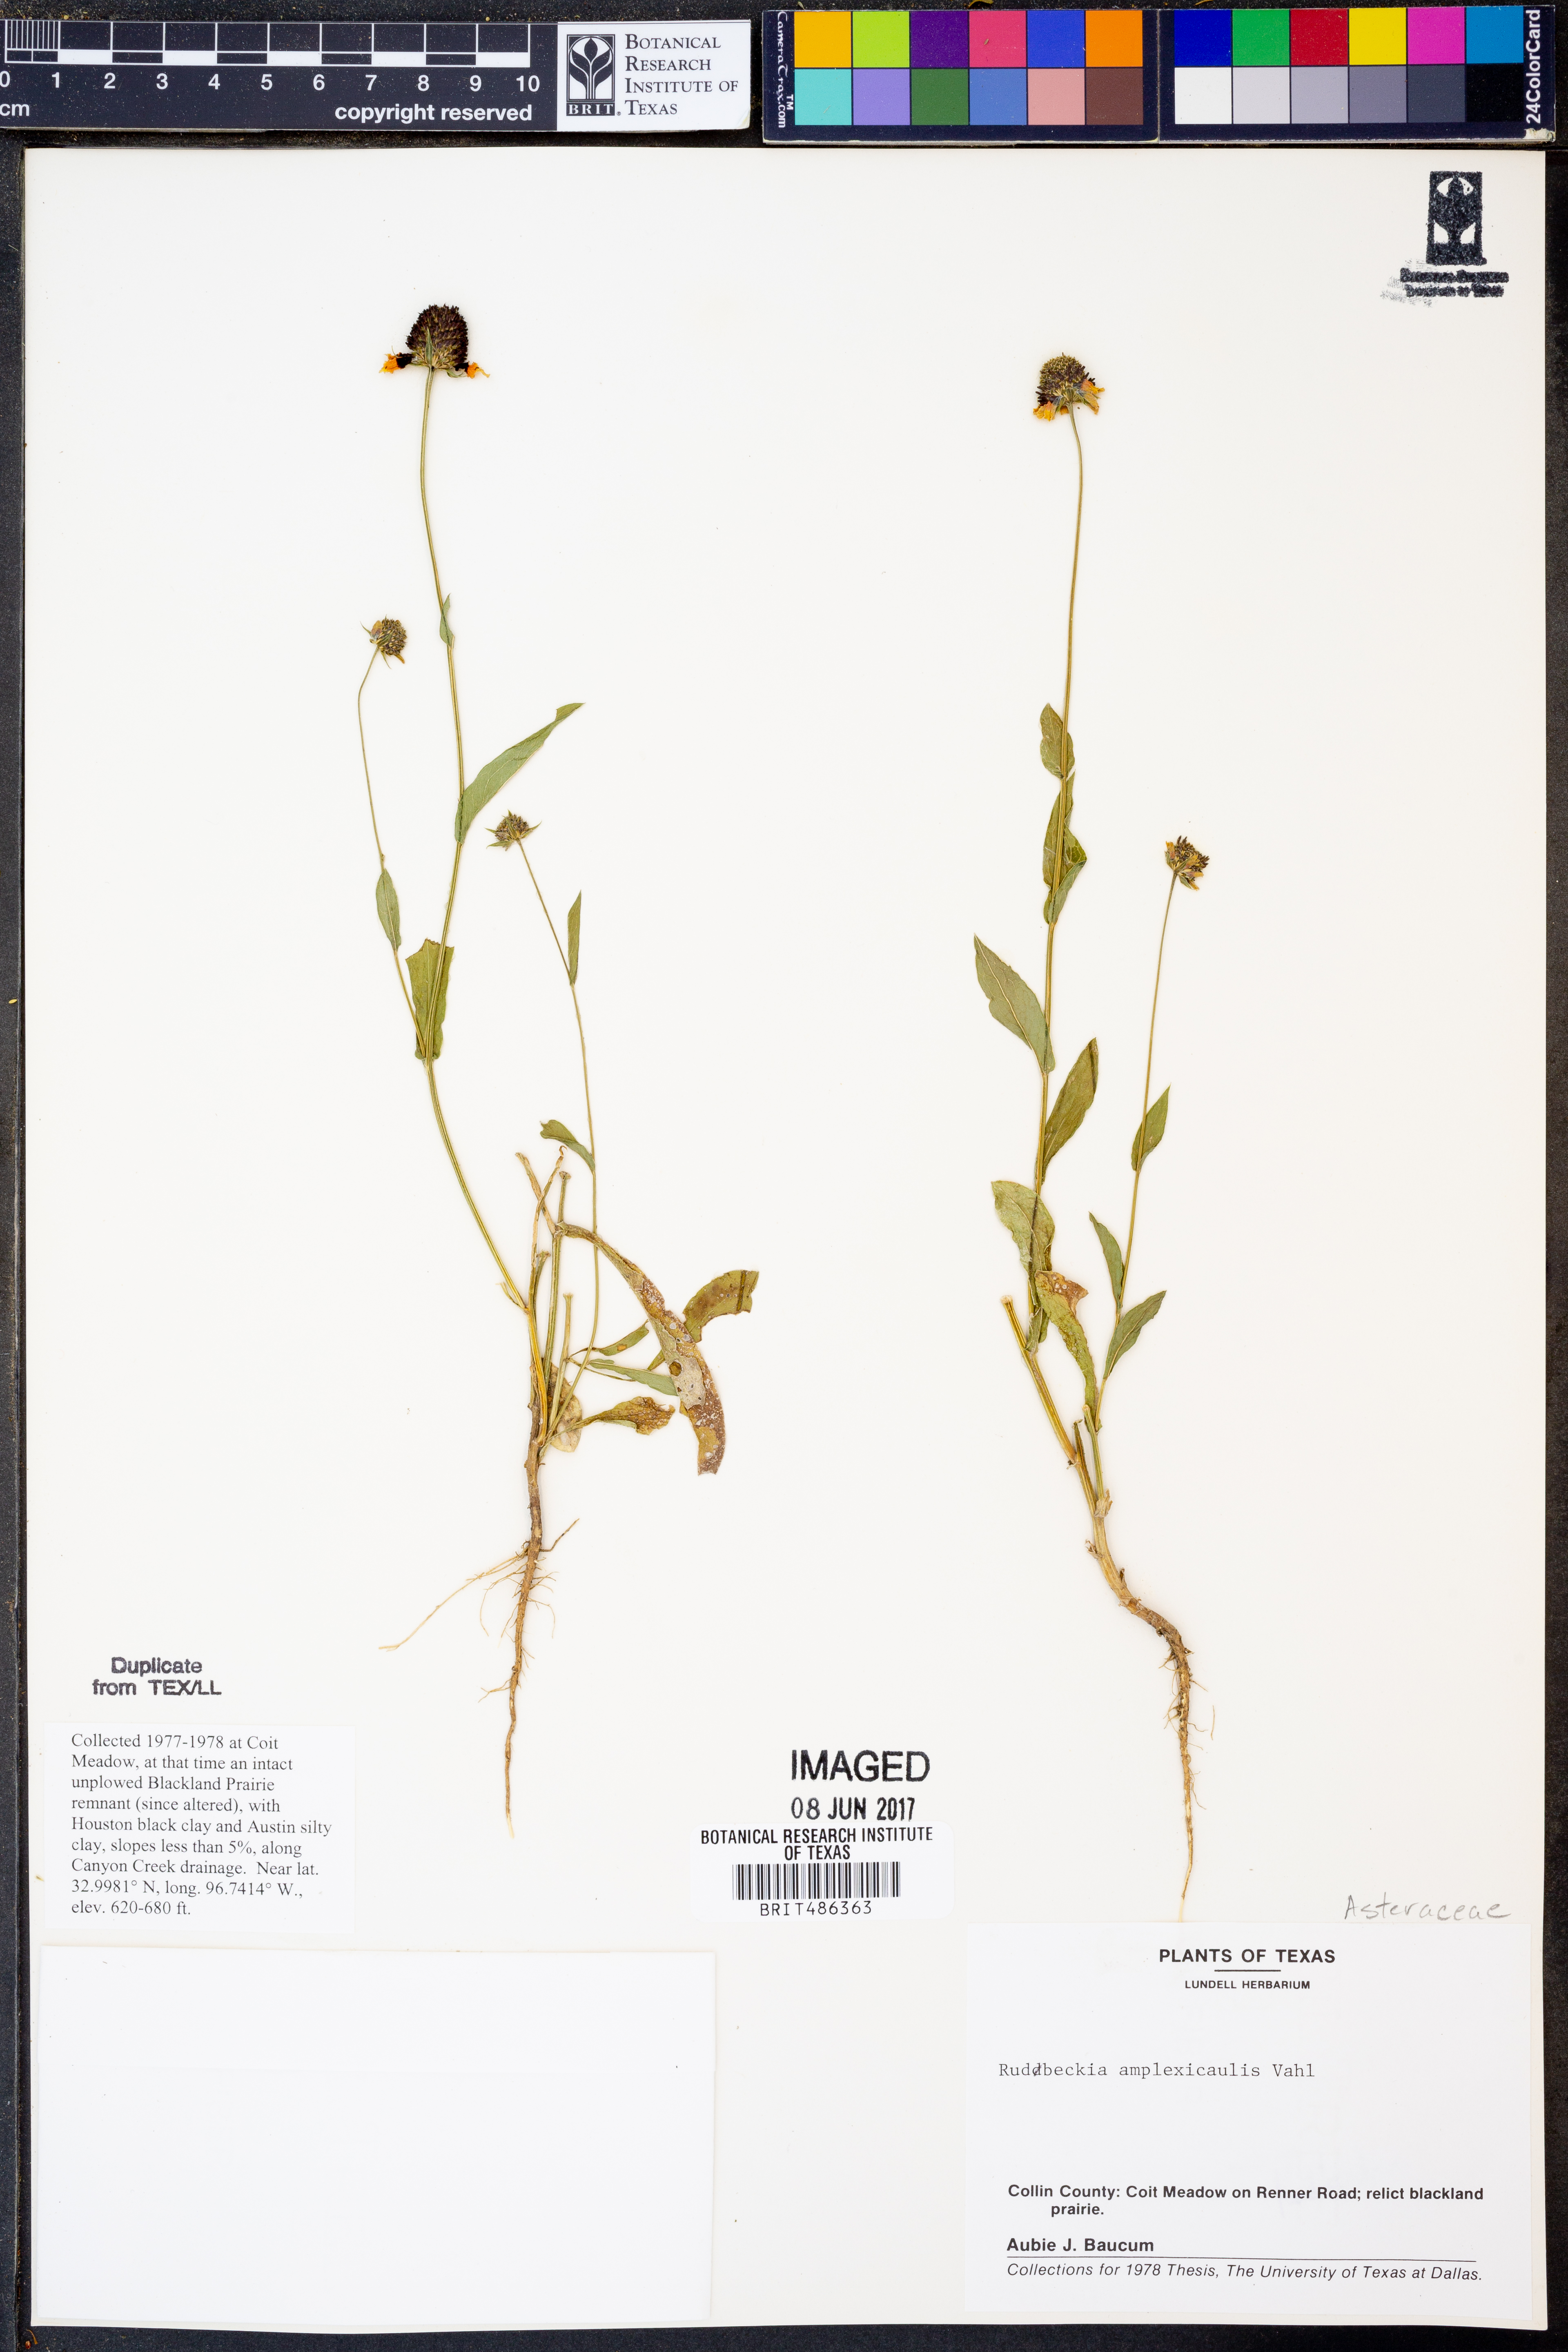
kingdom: Plantae
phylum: Tracheophyta
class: Magnoliopsida
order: Asterales
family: Asteraceae
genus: Rudbeckia
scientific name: Rudbeckia amplexicaulis
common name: Clasping-leaf coneflower
